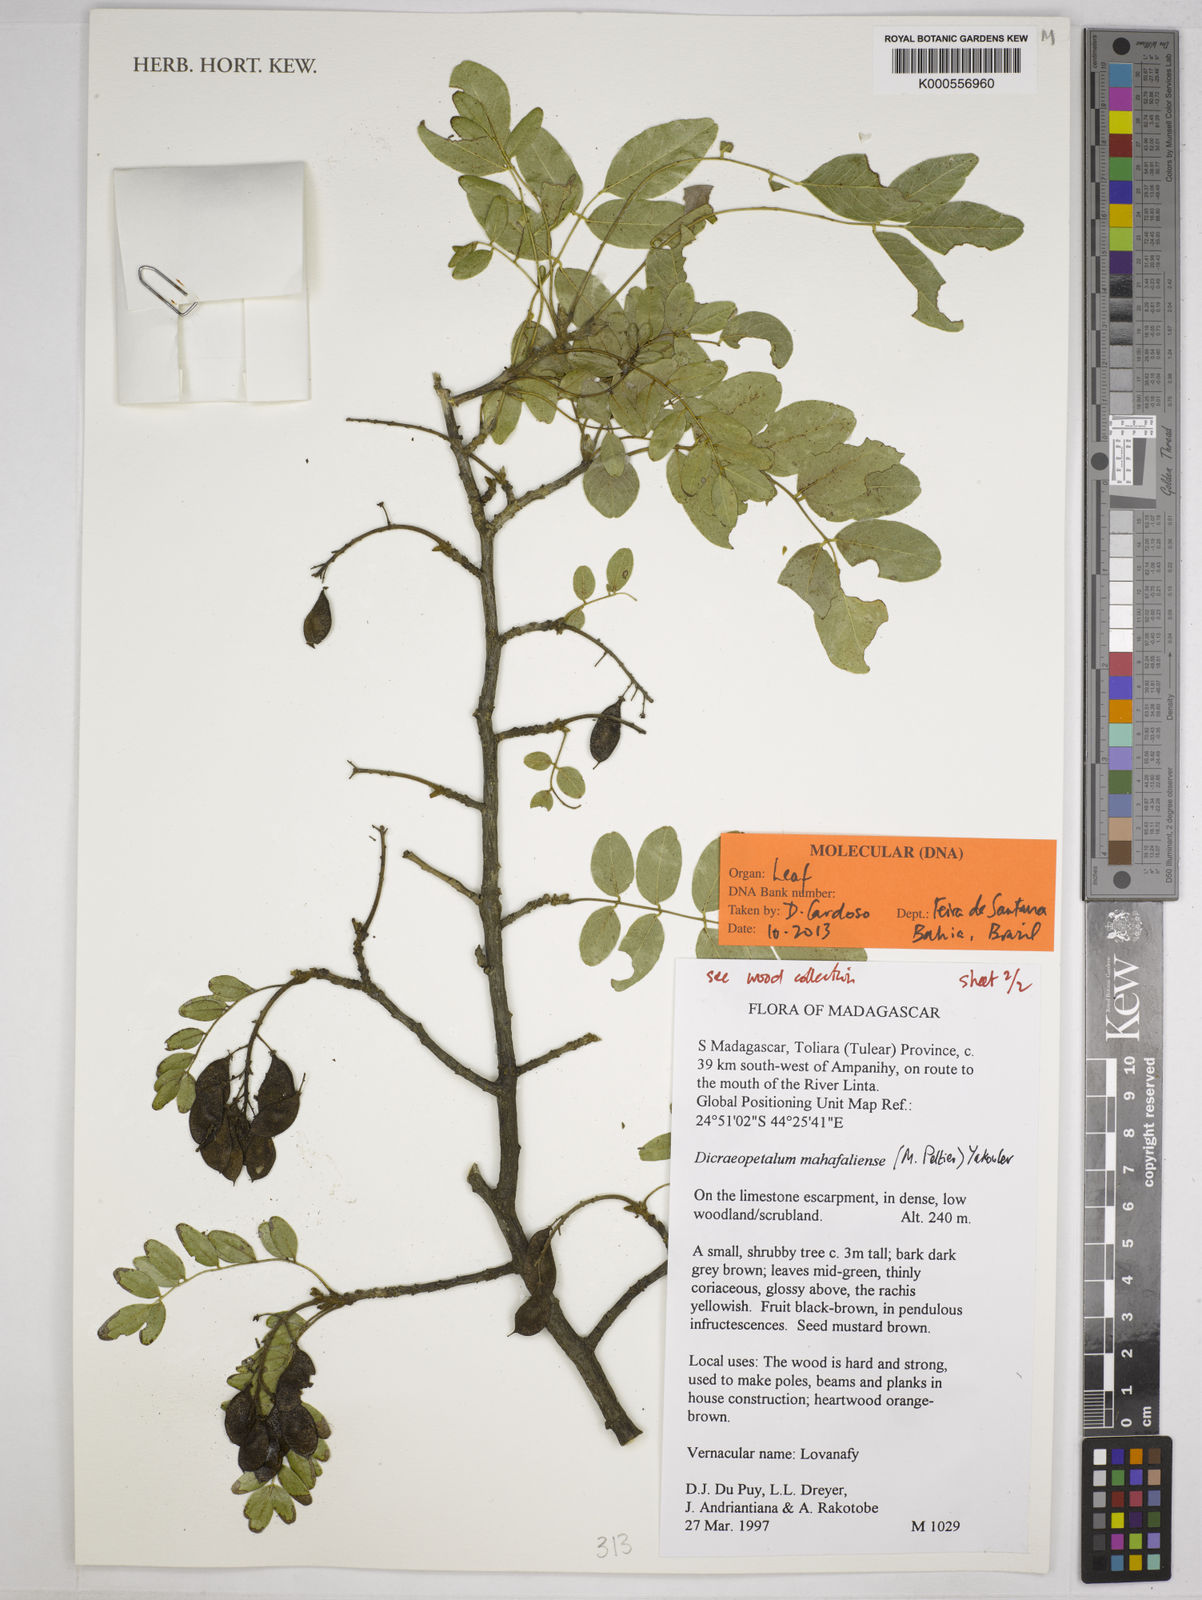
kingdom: Plantae
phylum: Tracheophyta
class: Magnoliopsida
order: Fabales
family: Fabaceae
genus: Dicraeopetalum
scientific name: Dicraeopetalum mahafaliense
